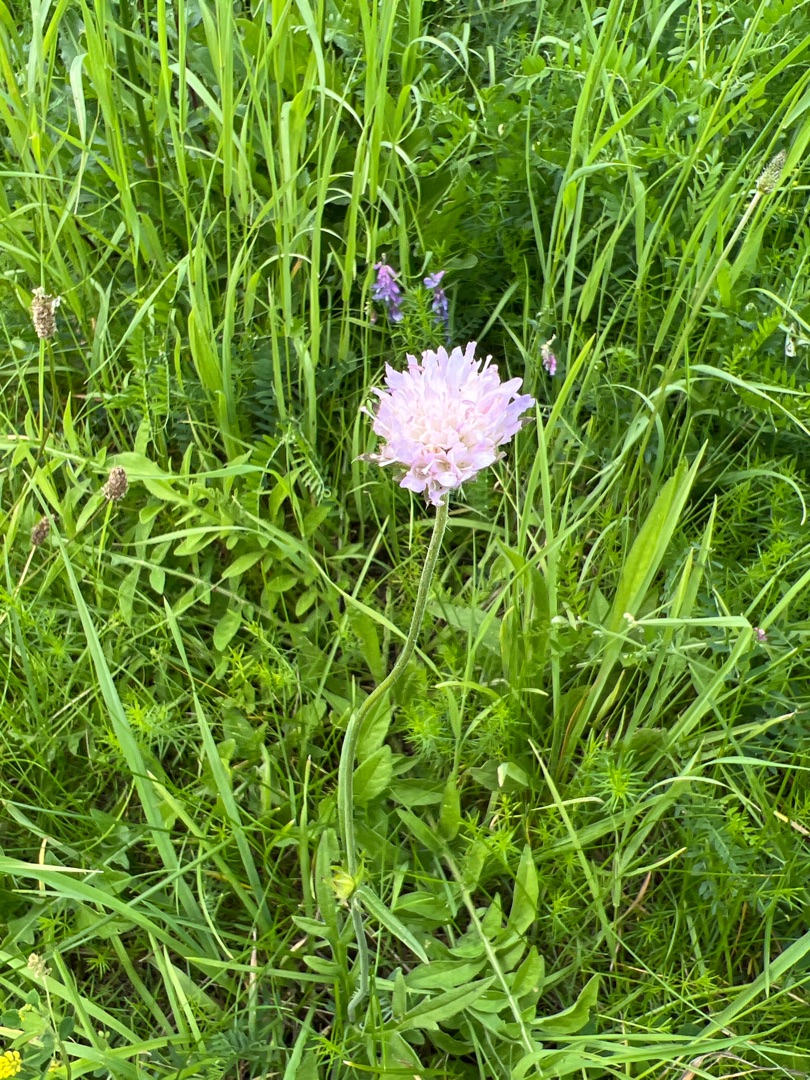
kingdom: Plantae
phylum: Tracheophyta
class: Magnoliopsida
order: Dipsacales
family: Caprifoliaceae
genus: Knautia
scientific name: Knautia arvensis
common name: Blåhat
